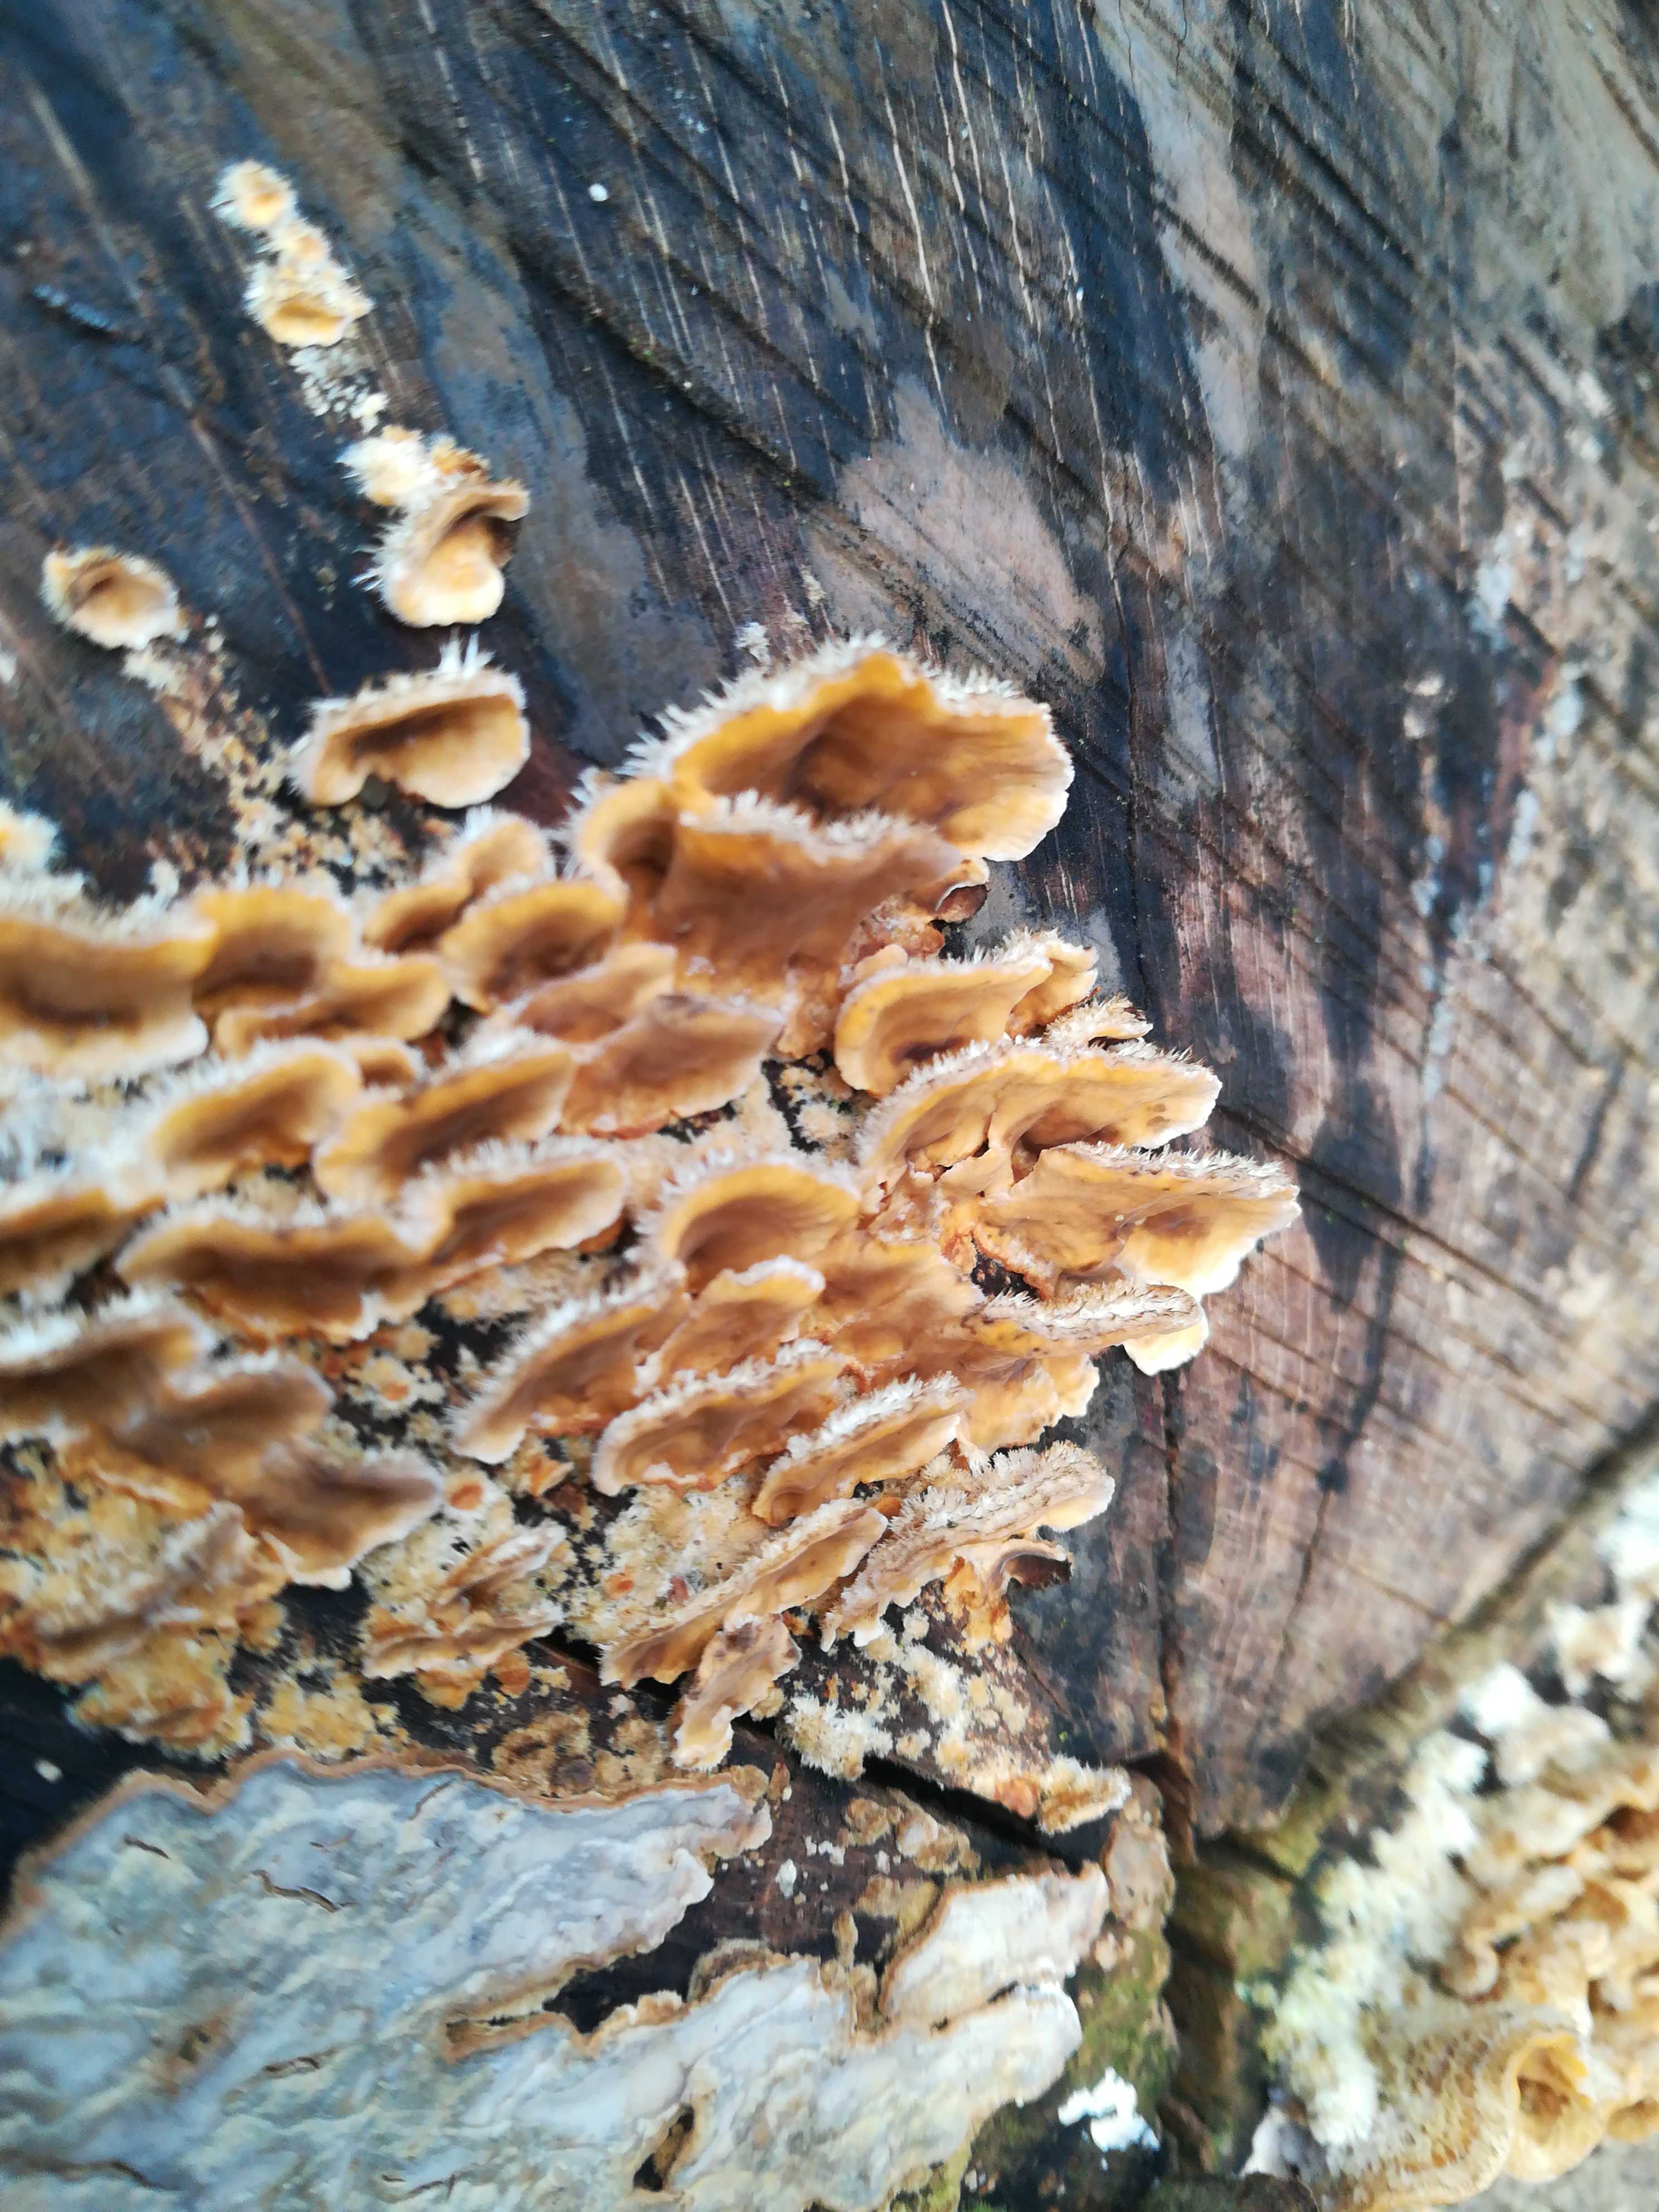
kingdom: Fungi
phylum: Basidiomycota
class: Agaricomycetes
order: Russulales
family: Stereaceae
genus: Stereum
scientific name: Stereum hirsutum
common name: håret lædersvamp
